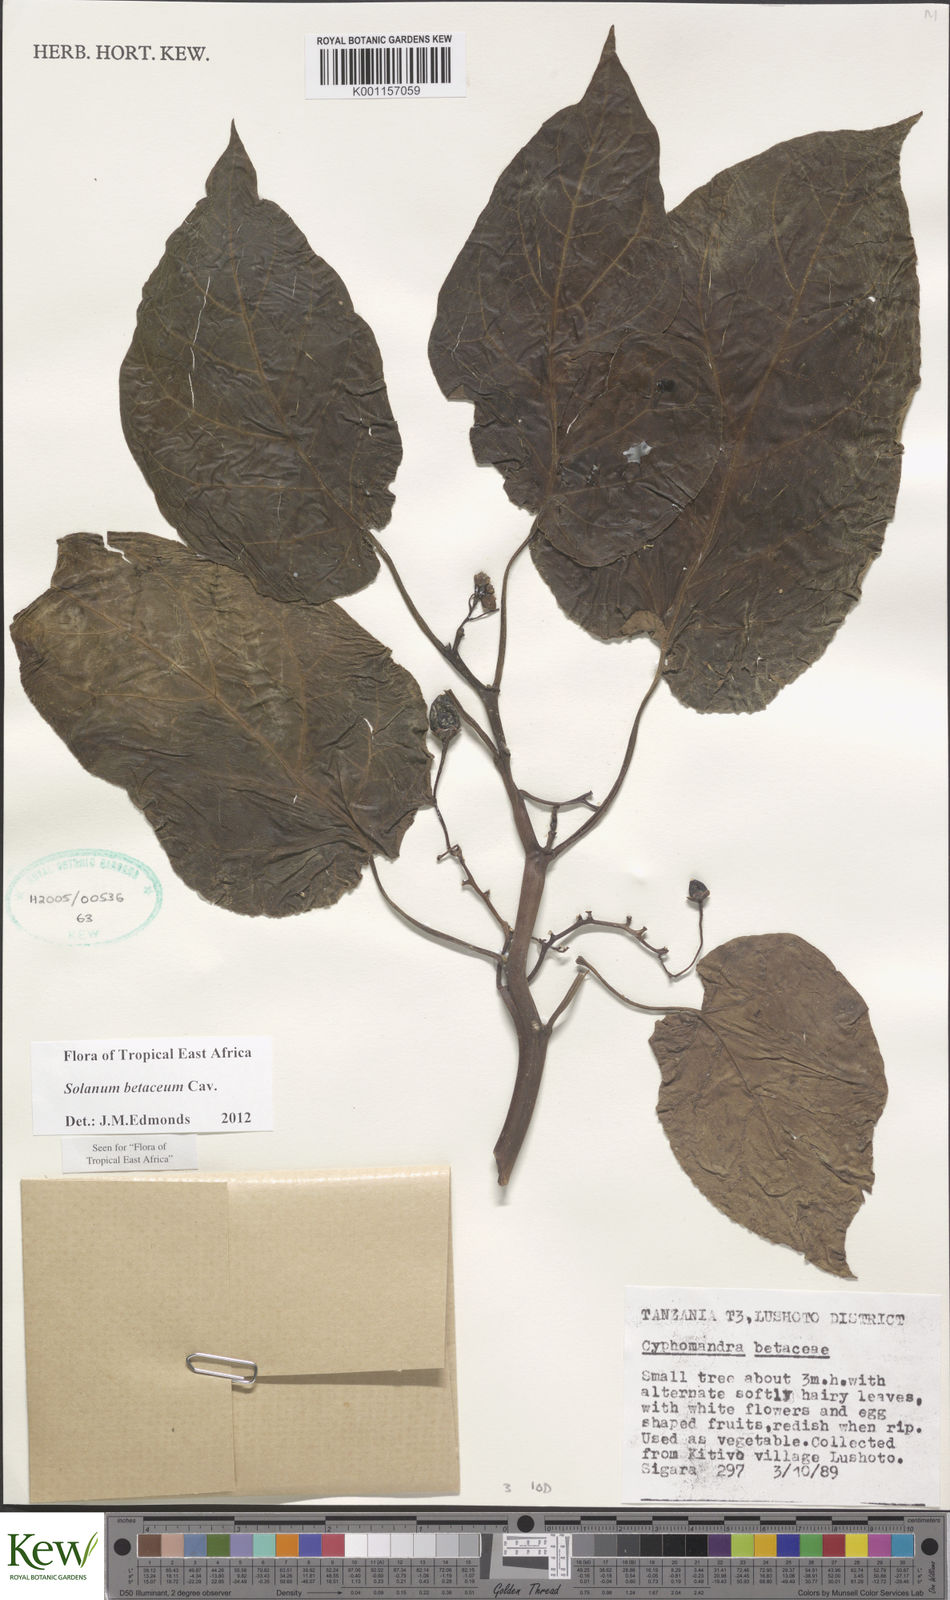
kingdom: Plantae
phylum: Tracheophyta
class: Magnoliopsida
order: Solanales
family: Solanaceae
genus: Solanum
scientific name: Solanum betaceum
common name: Tamarillo
